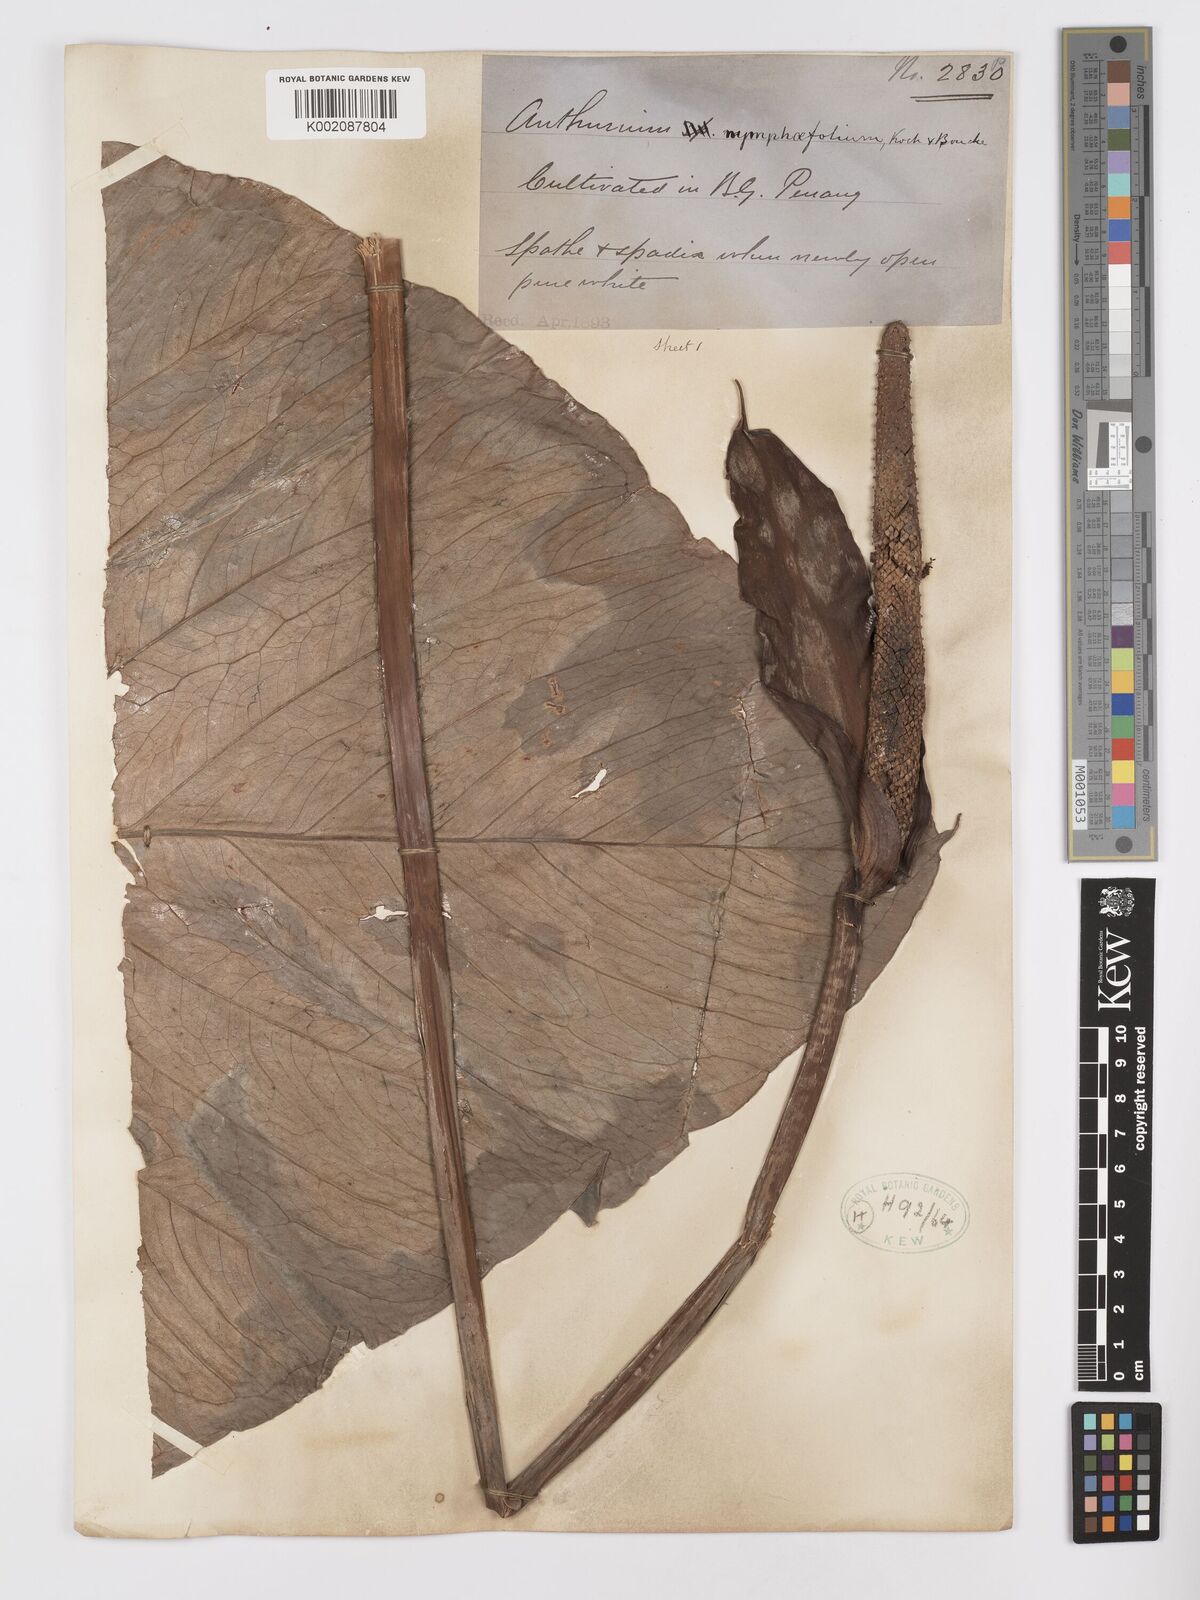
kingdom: Plantae
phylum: Tracheophyta
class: Liliopsida
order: Alismatales
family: Araceae
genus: Anthurium
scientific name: Anthurium nymphaeifolium
